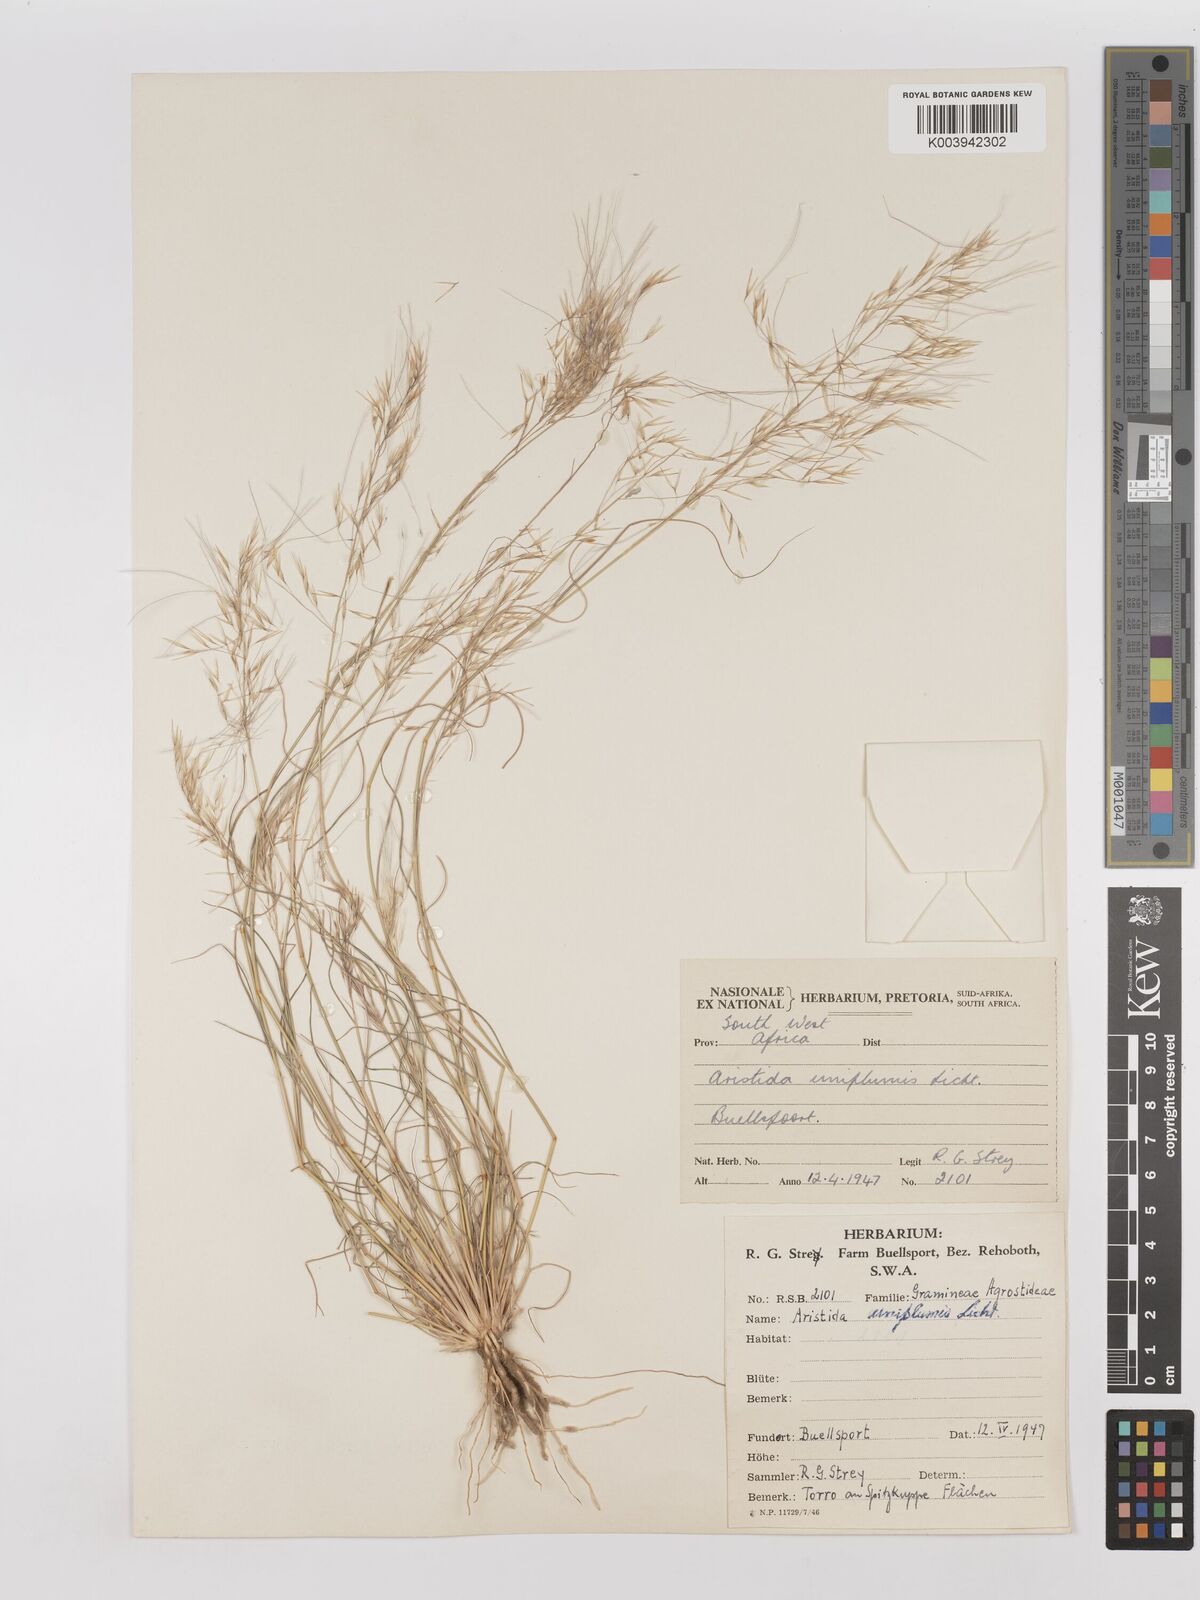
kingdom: Plantae
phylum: Tracheophyta
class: Liliopsida
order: Poales
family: Poaceae
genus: Stipagrostis
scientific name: Stipagrostis uniplumis
